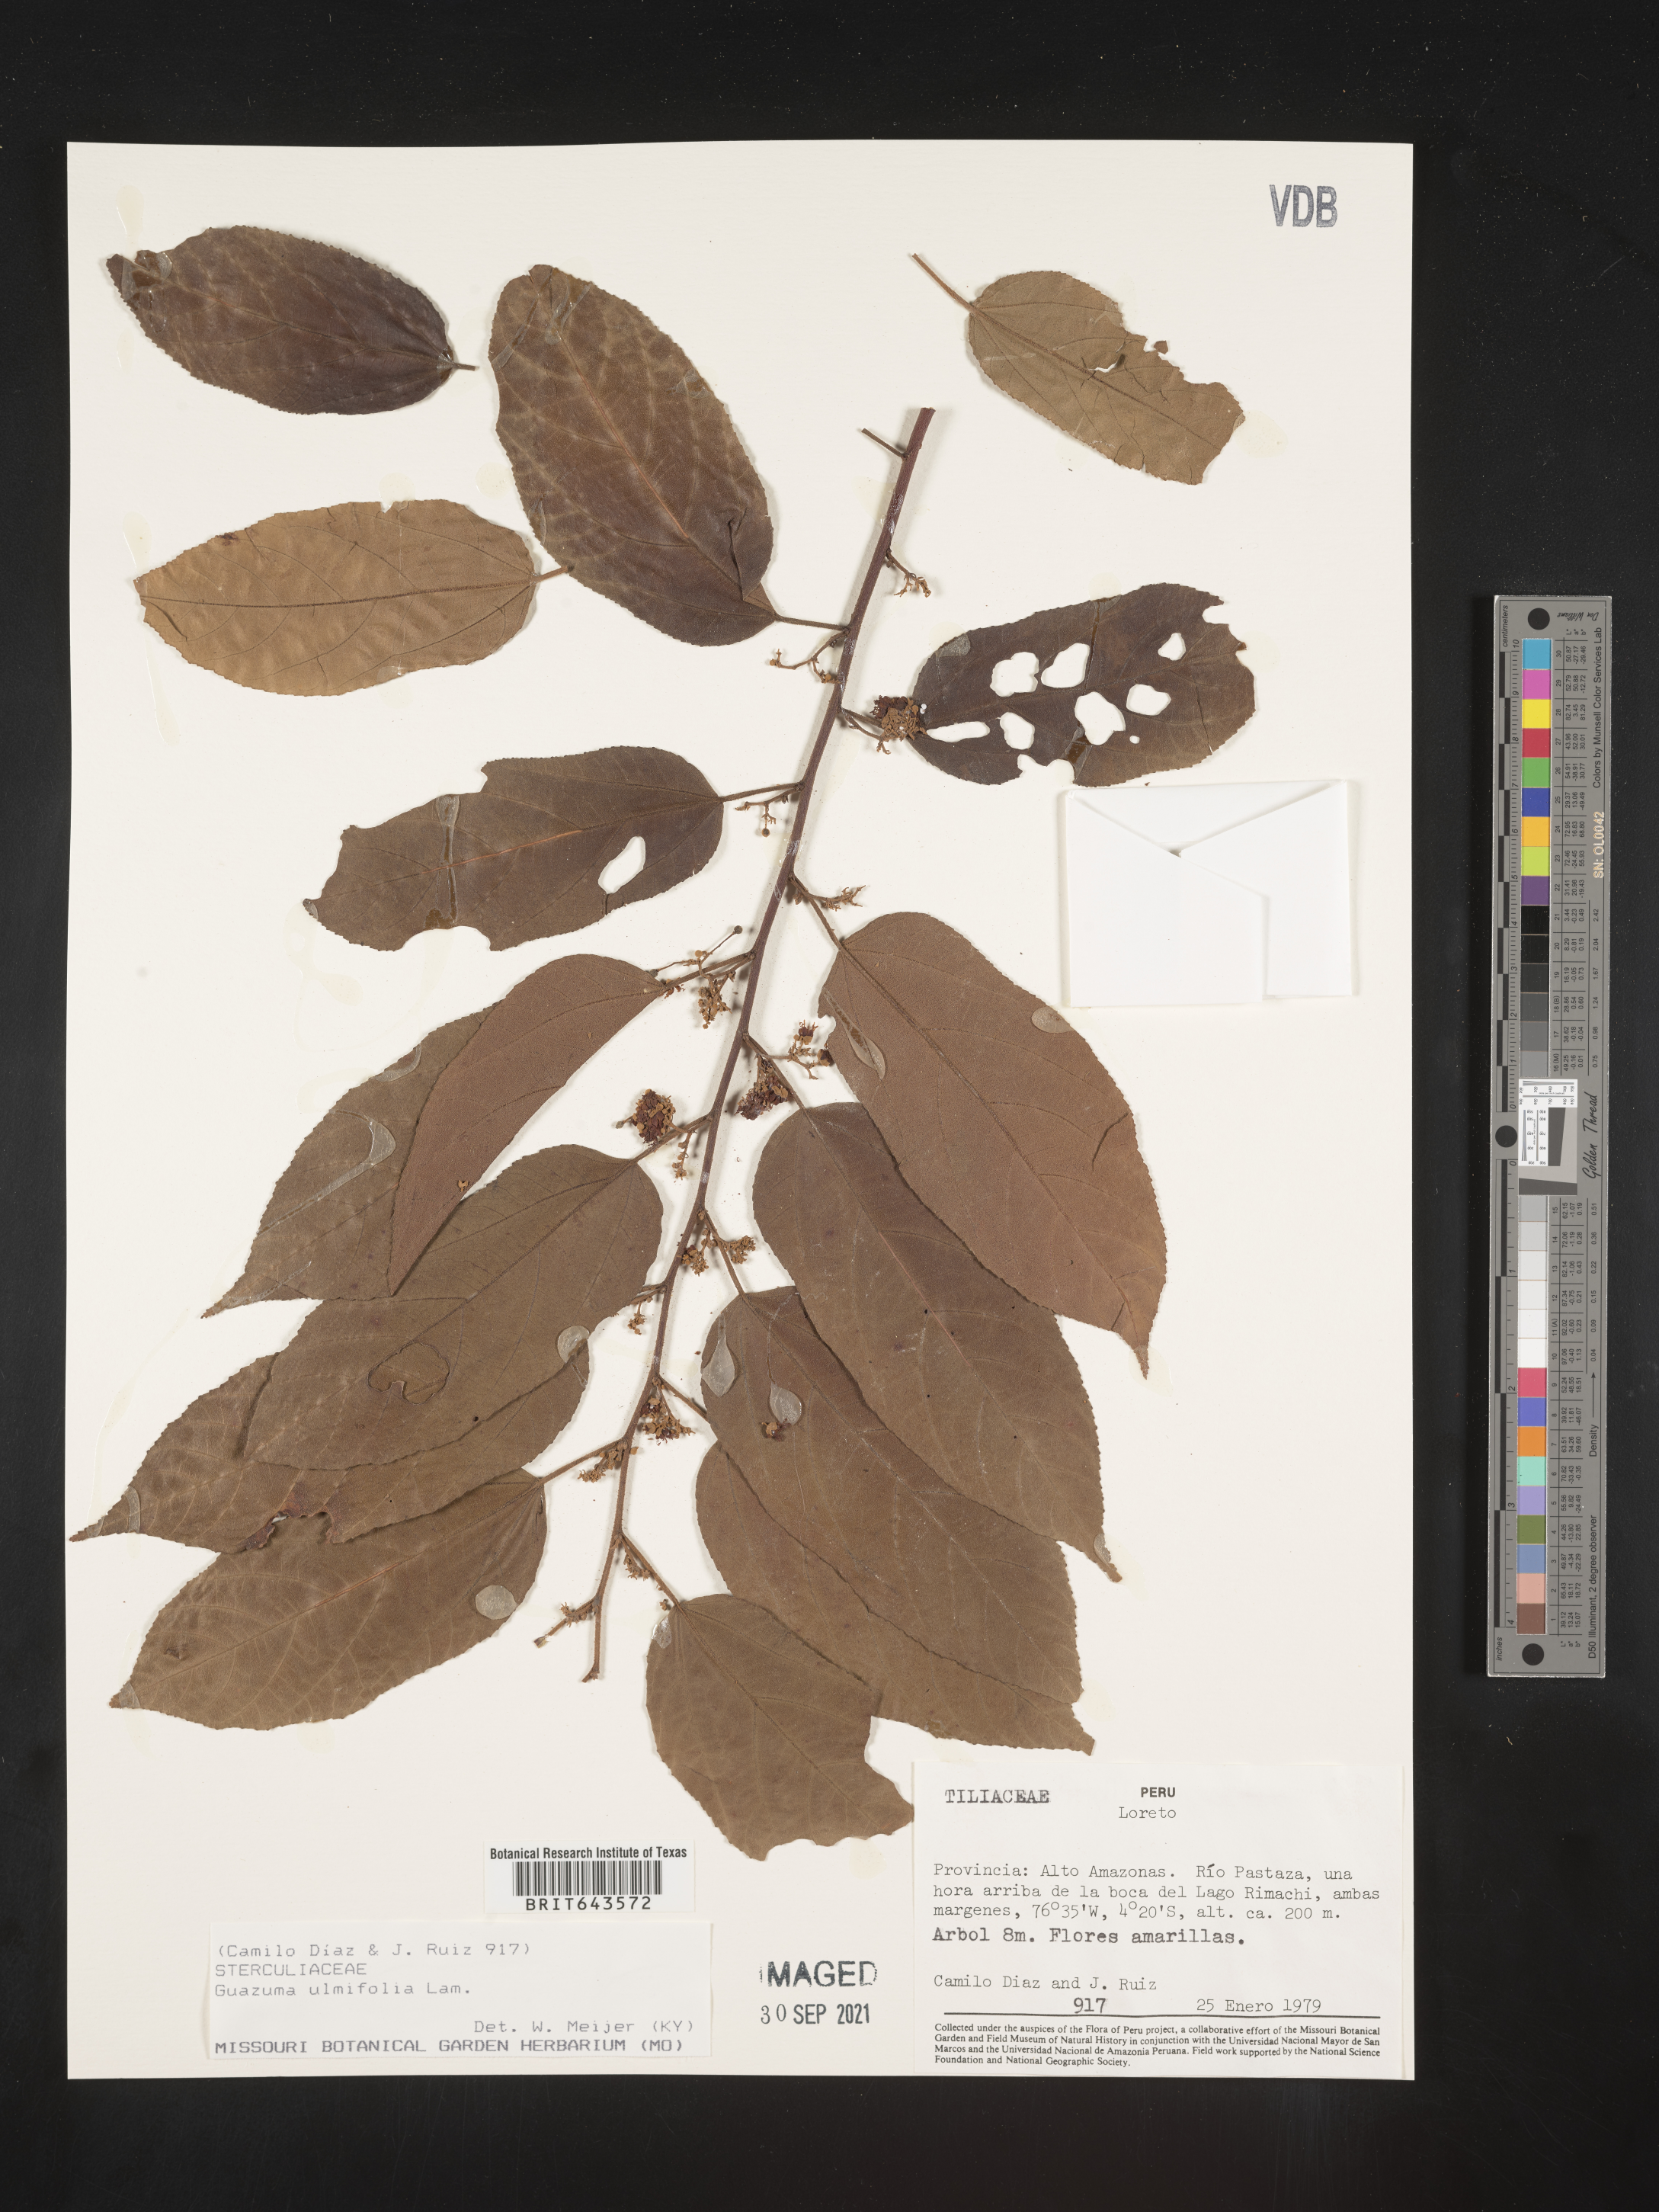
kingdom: Plantae
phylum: Tracheophyta
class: Magnoliopsida
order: Malvales
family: Malvaceae
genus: Guazuma
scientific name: Guazuma
